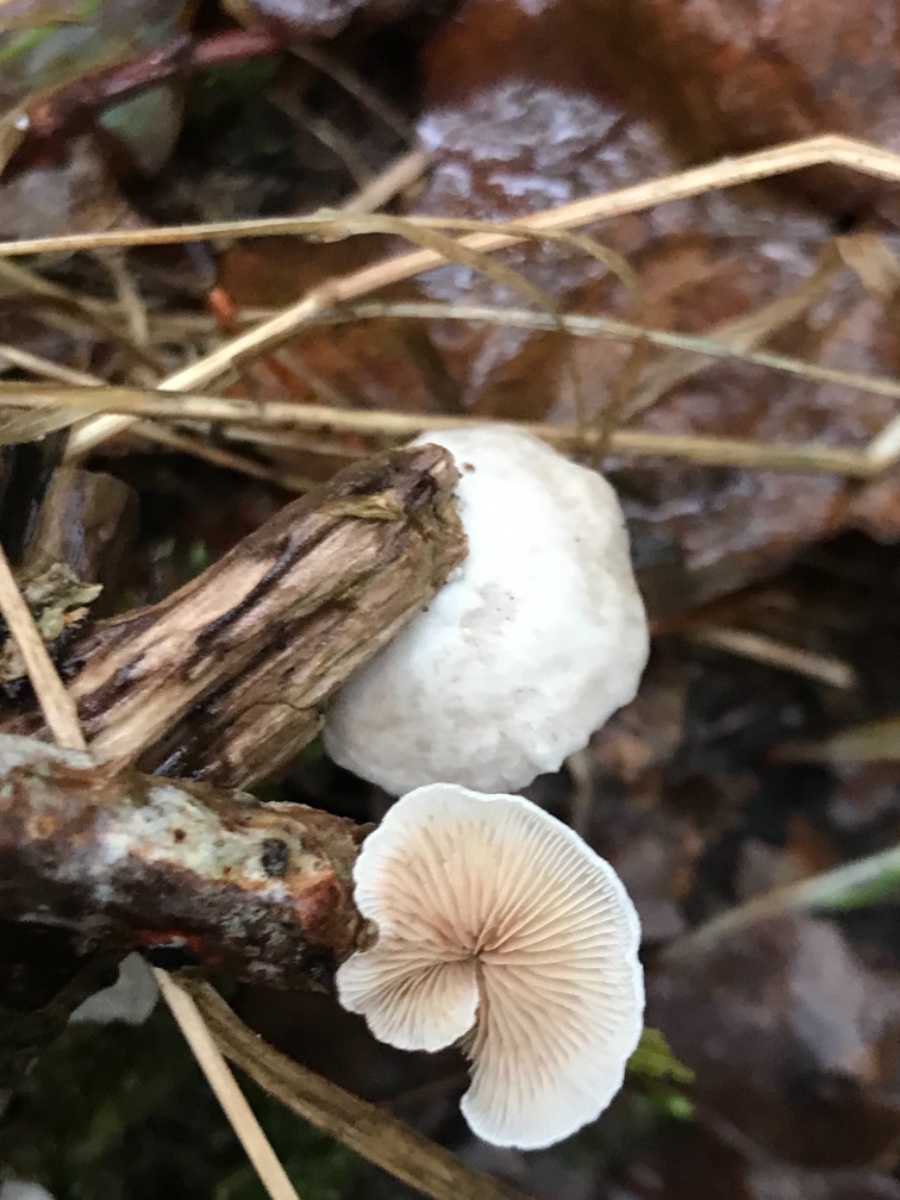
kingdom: Fungi
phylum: Basidiomycota
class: Agaricomycetes
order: Agaricales
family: Crepidotaceae
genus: Crepidotus
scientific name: Crepidotus
